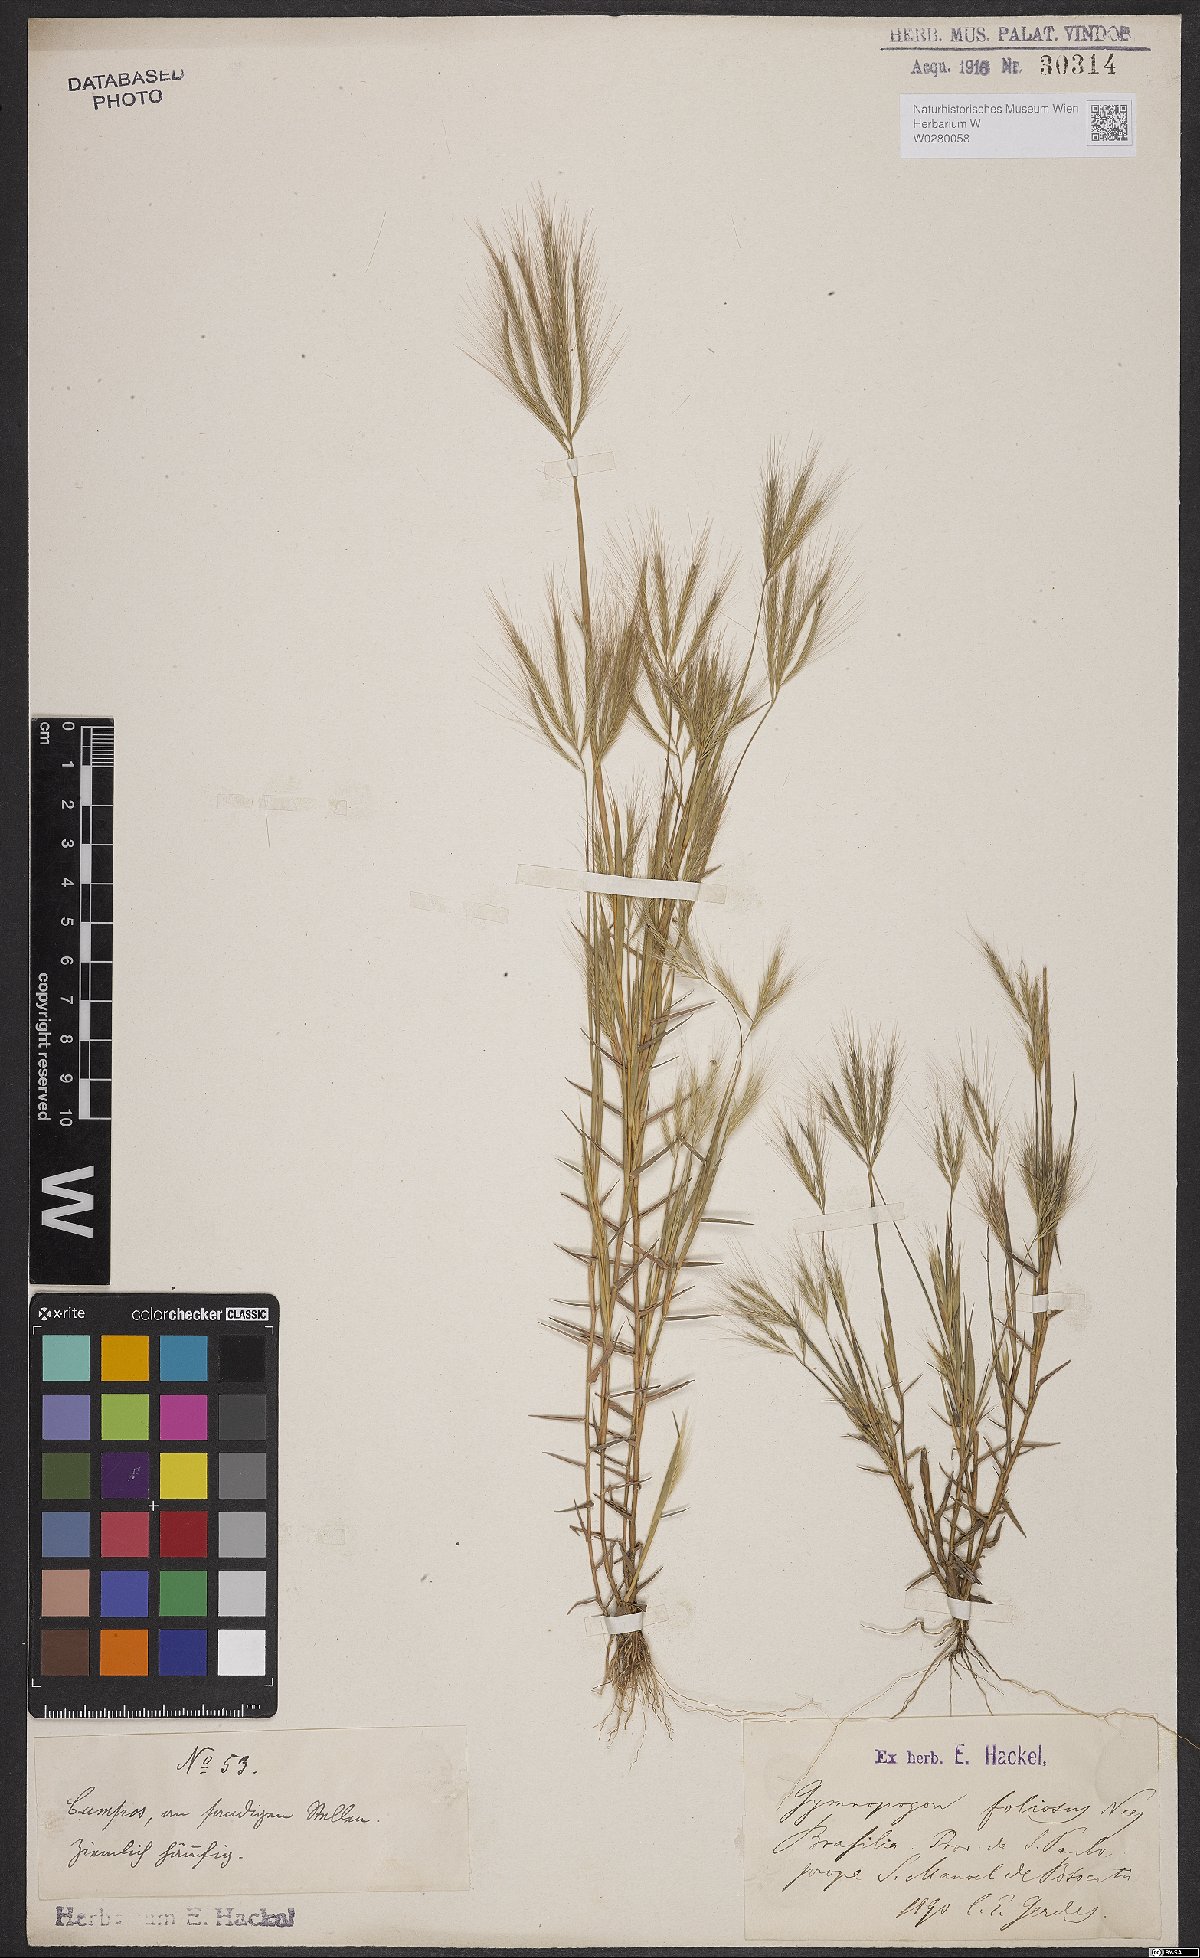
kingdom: Plantae
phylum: Tracheophyta
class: Liliopsida
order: Poales
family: Poaceae
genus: Gymnopogon
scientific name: Gymnopogon foliosus
